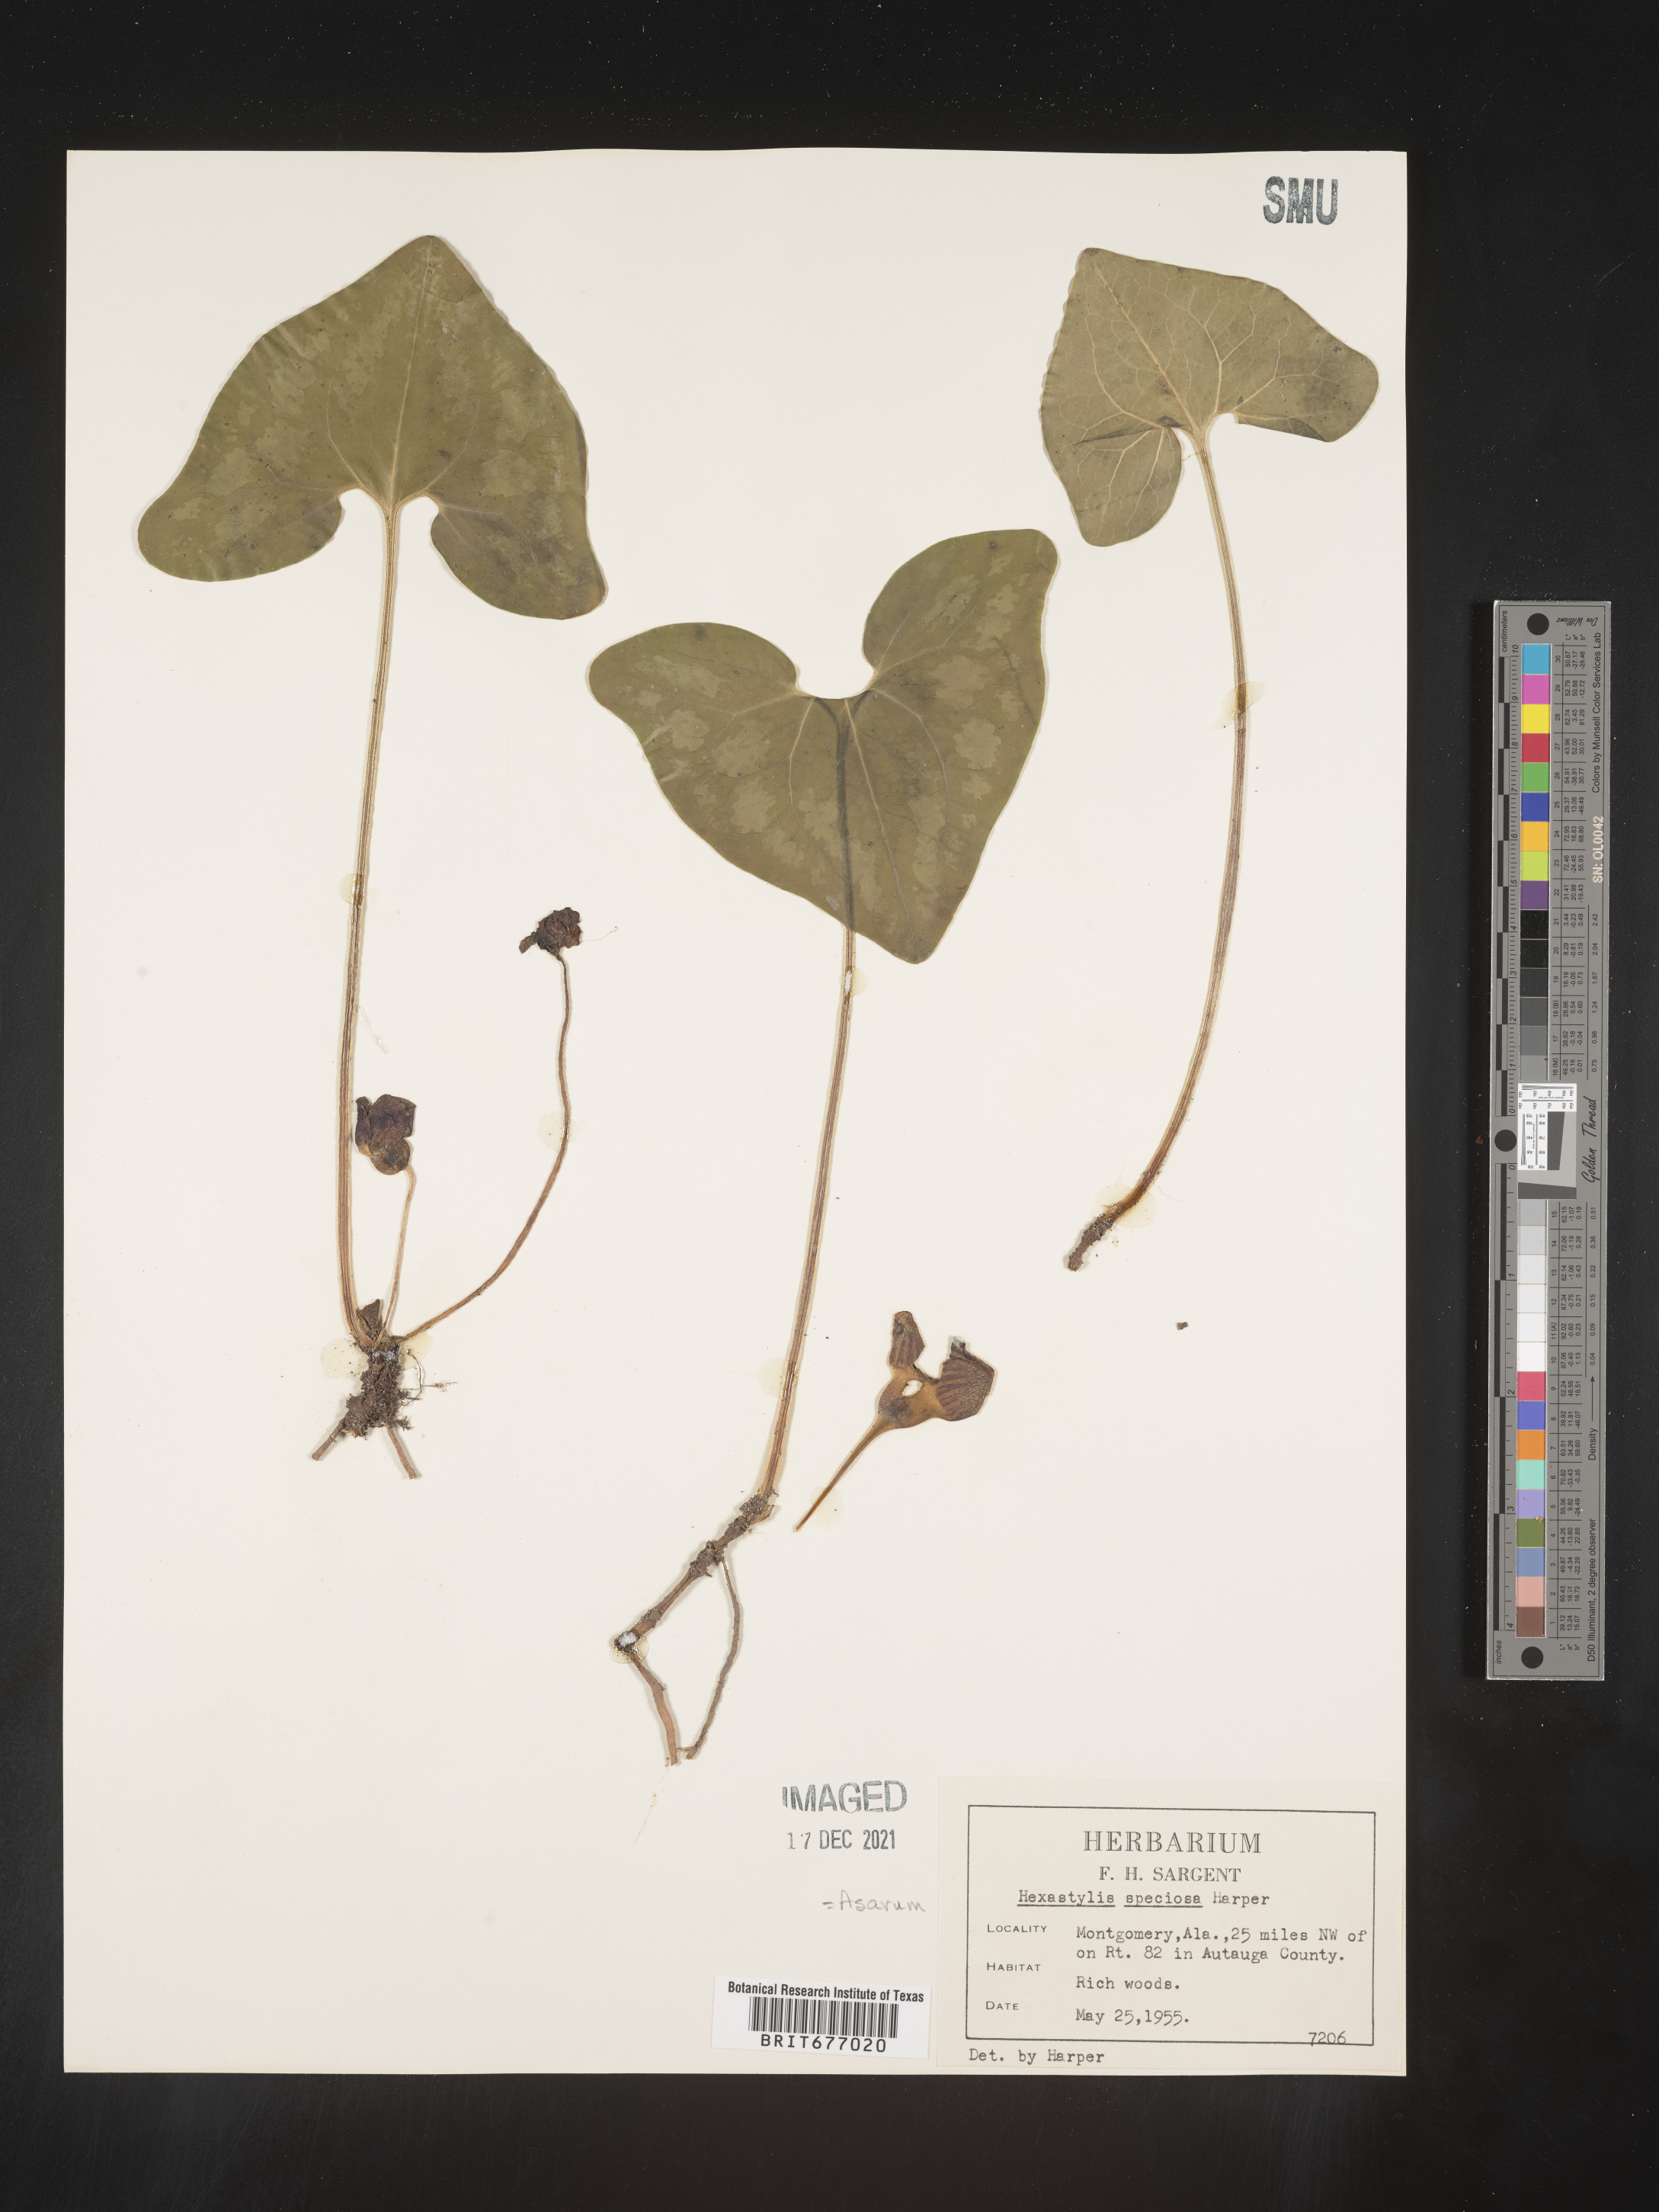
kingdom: Plantae
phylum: Tracheophyta
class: Magnoliopsida
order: Piperales
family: Aristolochiaceae
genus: Asarum
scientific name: Asarum
